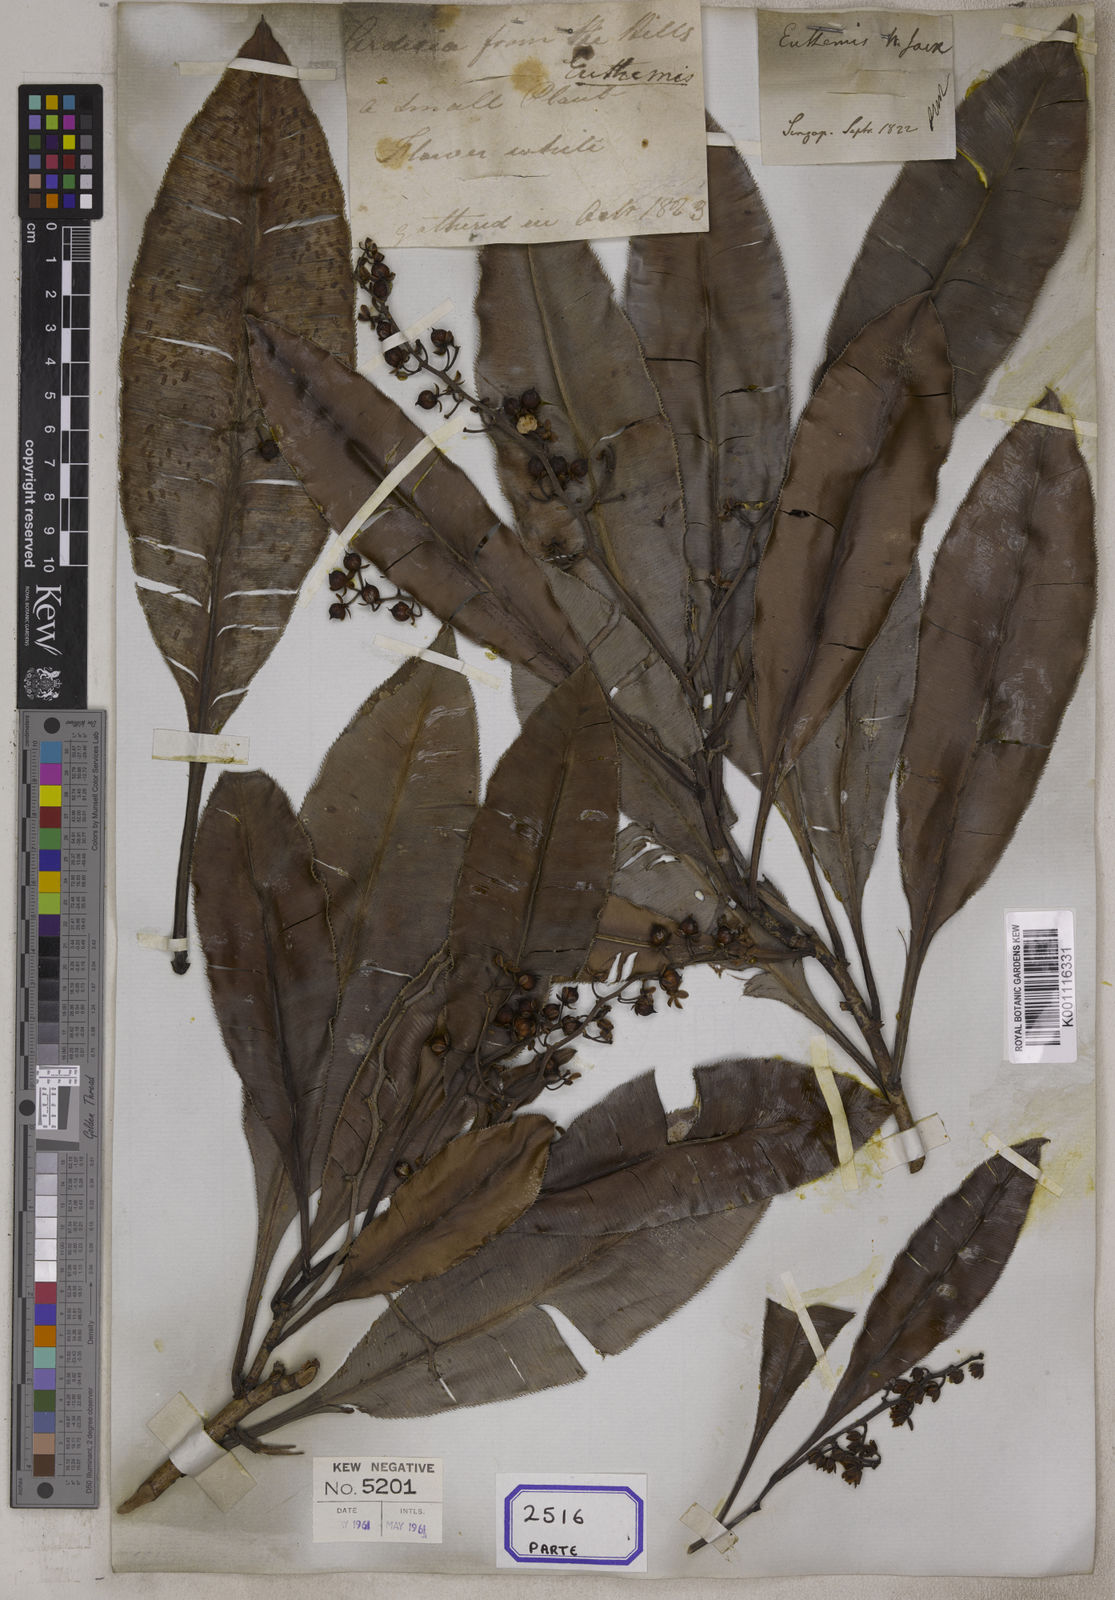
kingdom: Plantae
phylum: Tracheophyta
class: Magnoliopsida
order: Malpighiales
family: Ochnaceae
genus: Euthemis
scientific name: Euthemis leucocarpa
